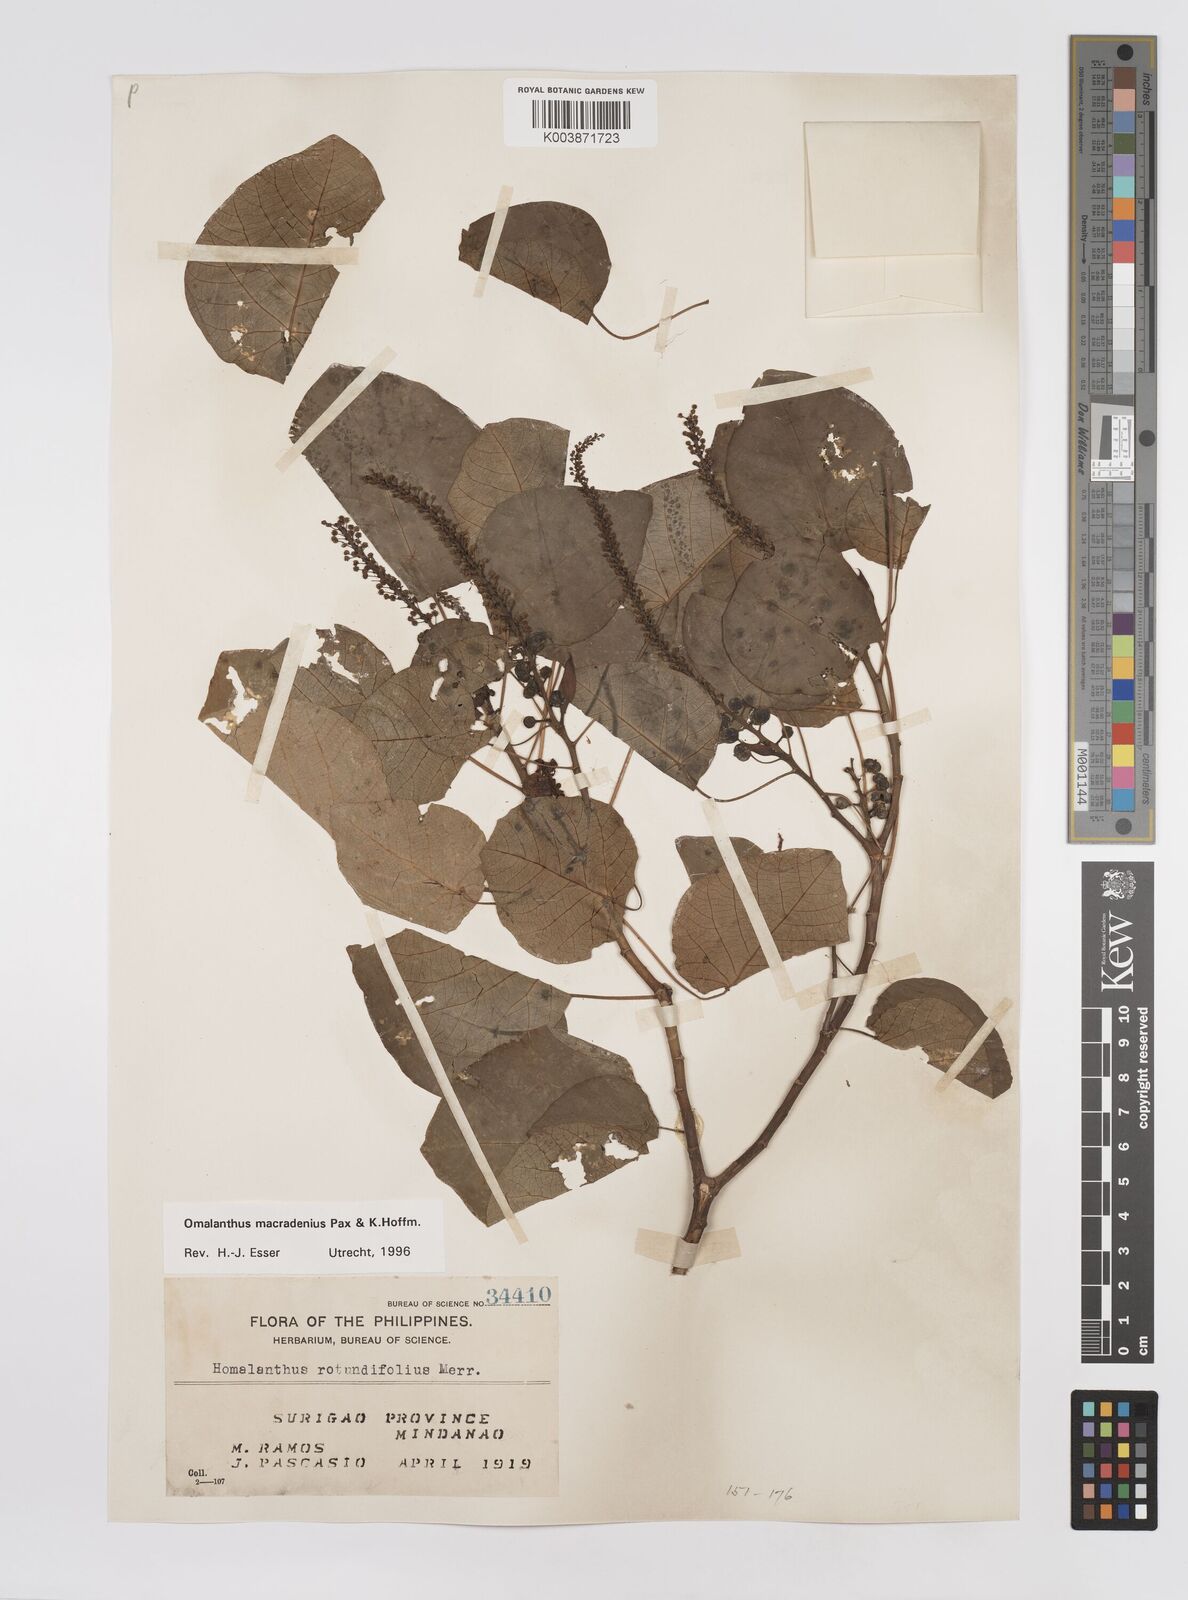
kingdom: Plantae
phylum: Tracheophyta
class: Magnoliopsida
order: Malpighiales
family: Euphorbiaceae
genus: Homalanthus
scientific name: Homalanthus macradenius
